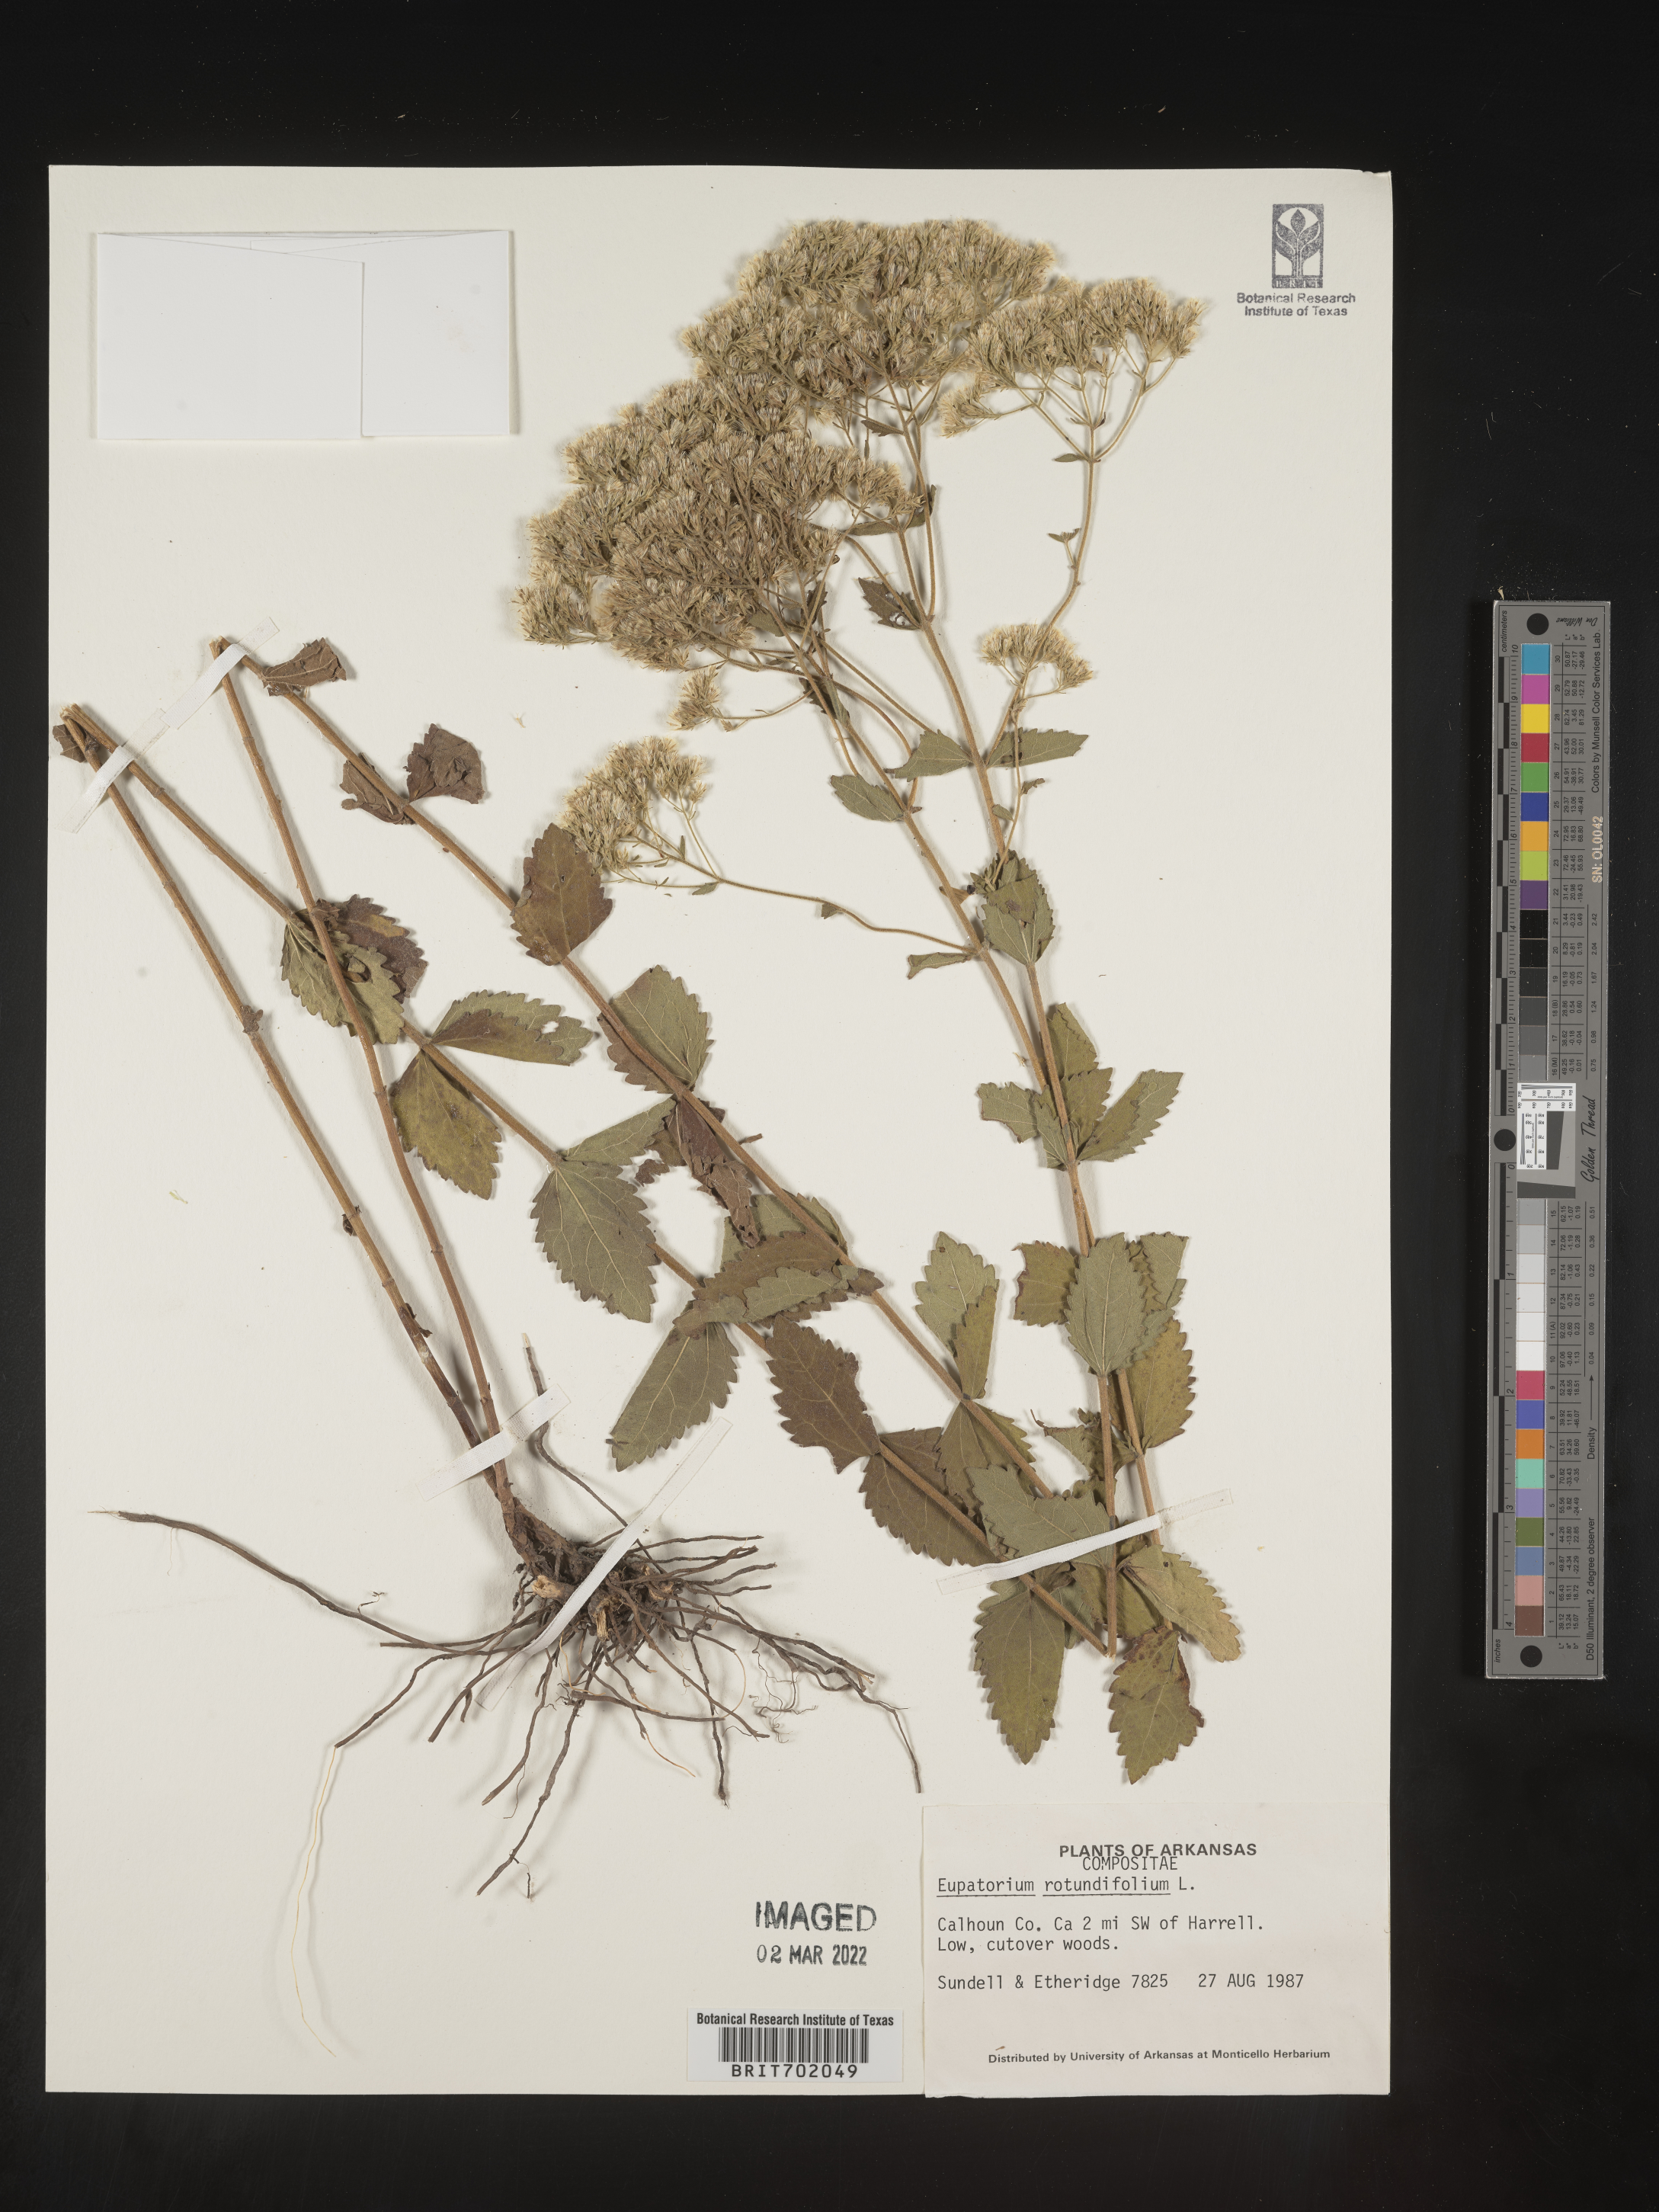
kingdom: Plantae
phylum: Tracheophyta
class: Magnoliopsida
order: Asterales
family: Asteraceae
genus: Eupatorium
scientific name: Eupatorium rotundifolium
